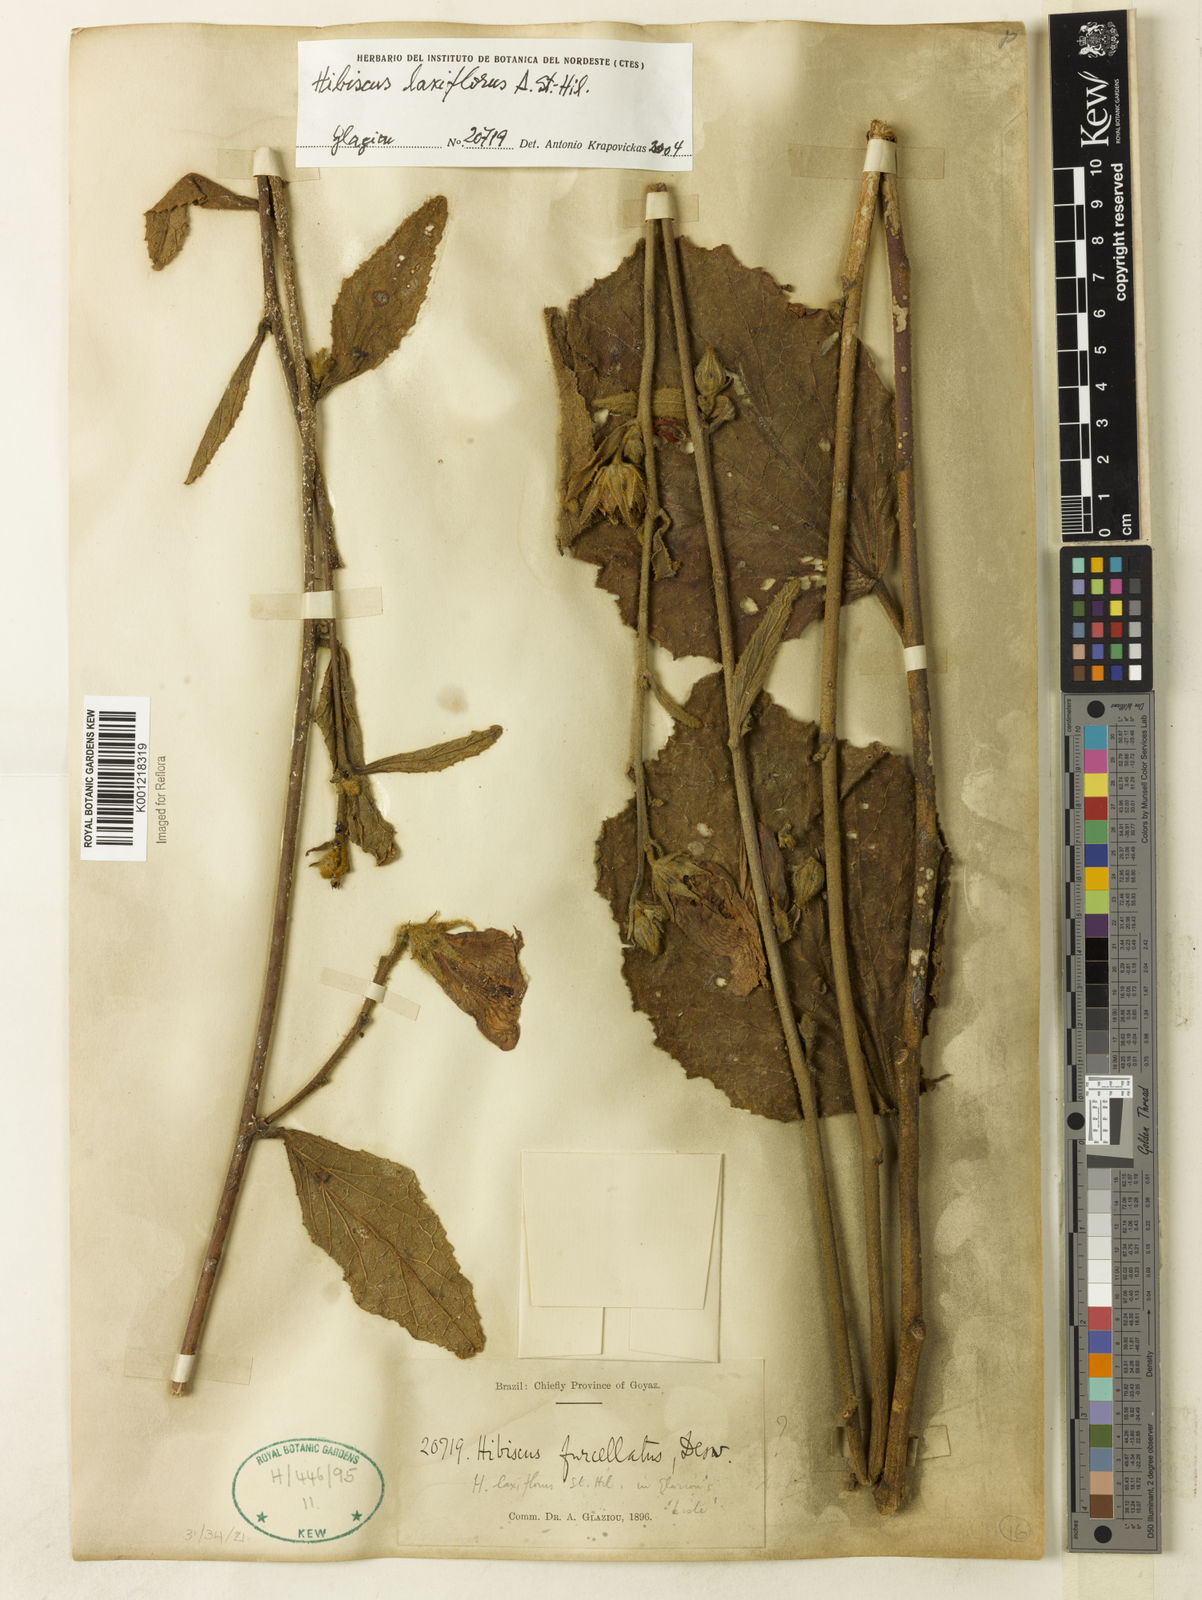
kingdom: Plantae
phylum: Tracheophyta
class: Magnoliopsida
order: Malvales
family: Malvaceae
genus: Hibiscus
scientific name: Hibiscus wilsonii
